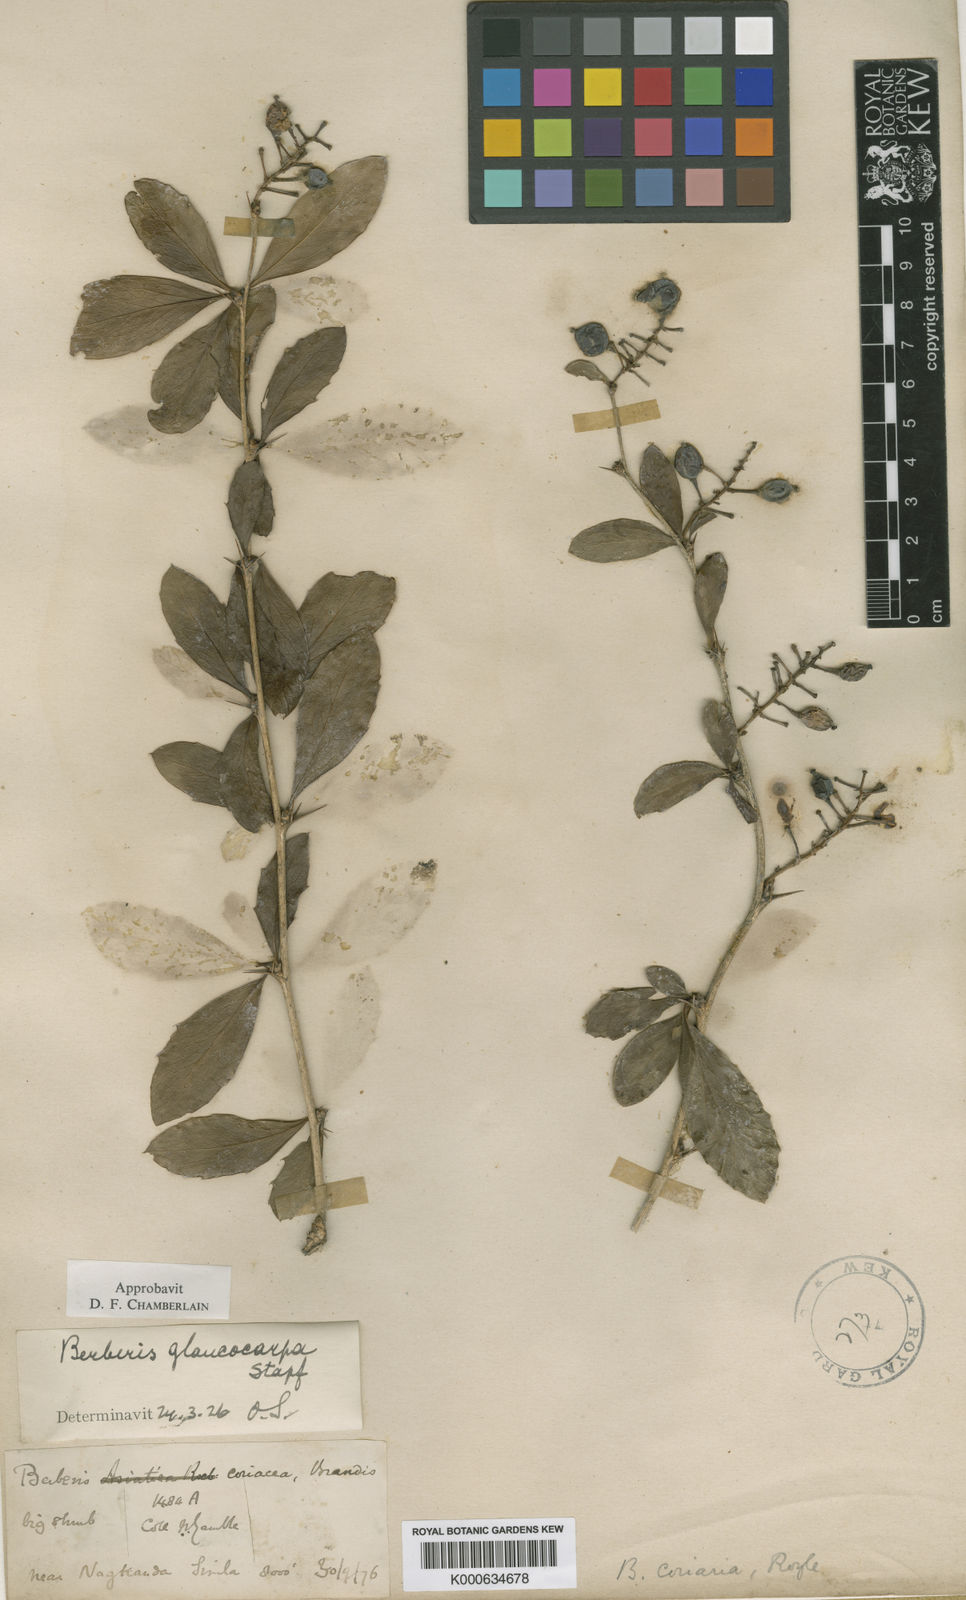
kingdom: Plantae
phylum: Tracheophyta
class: Magnoliopsida
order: Ranunculales
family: Berberidaceae
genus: Berberis
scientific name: Berberis glaucocarpa
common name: Great barberry
